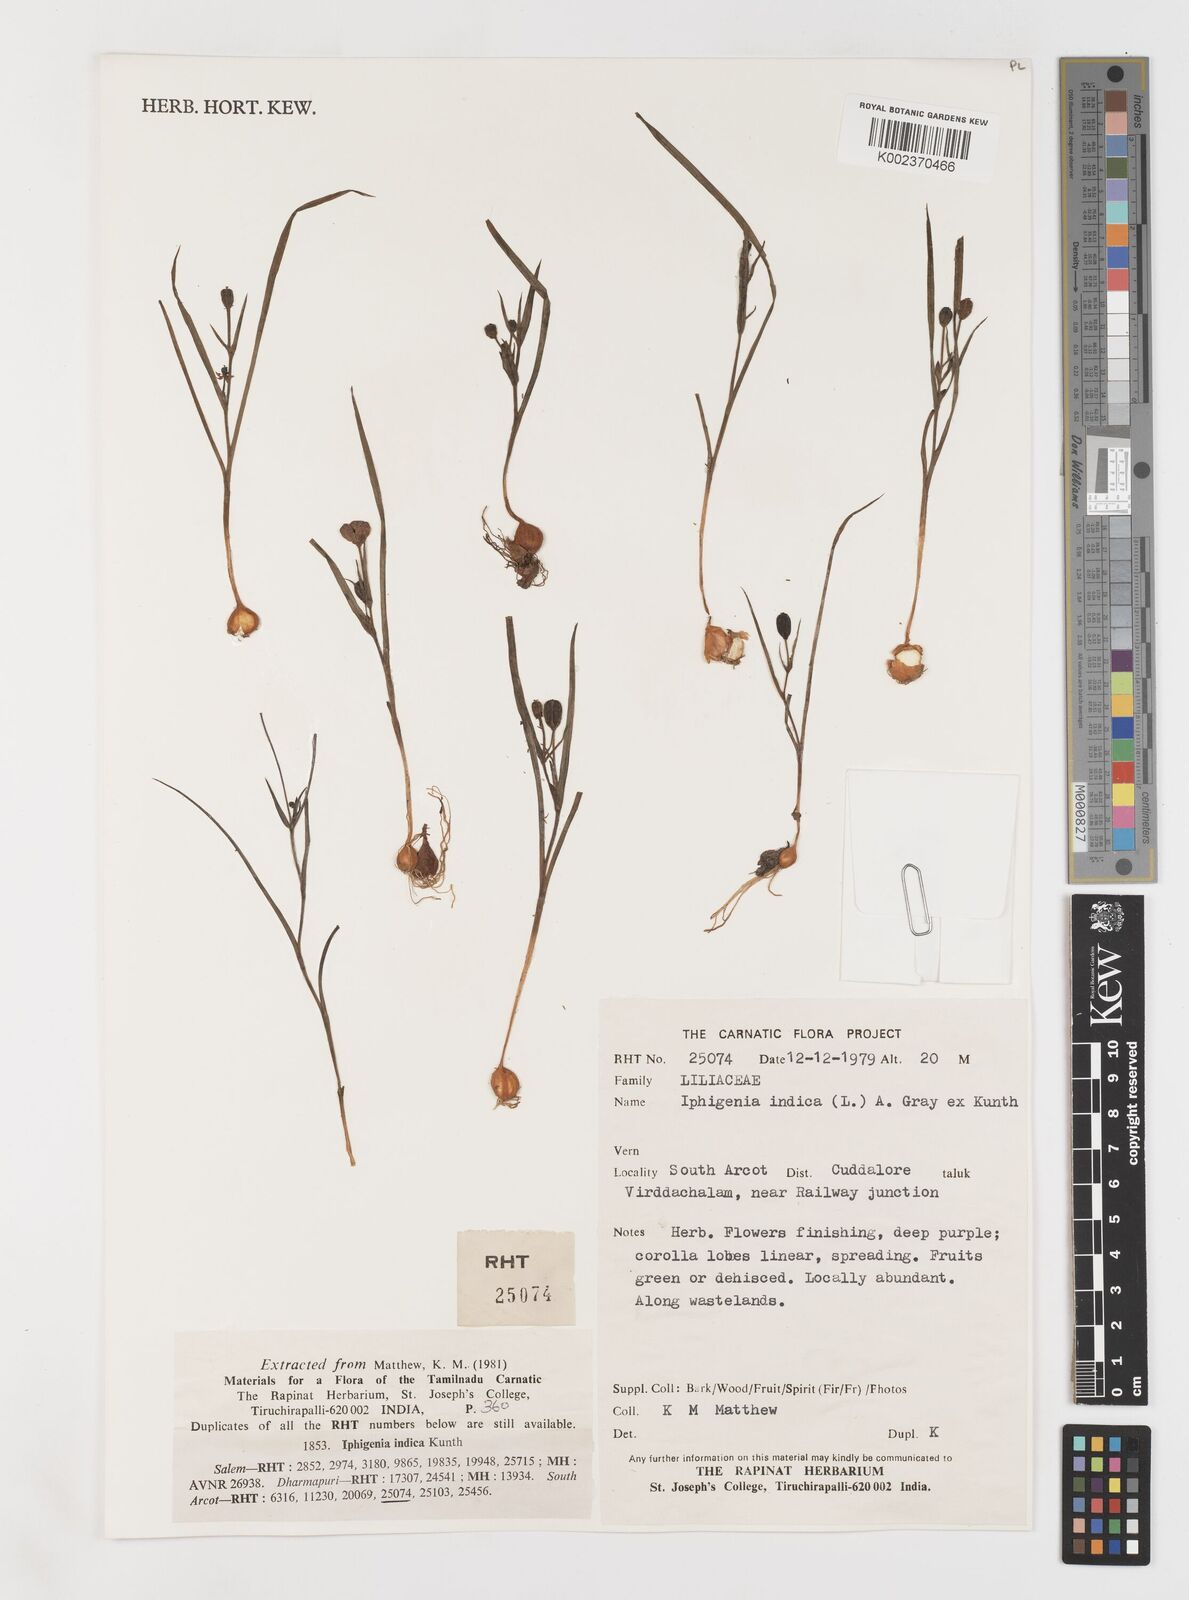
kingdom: Plantae
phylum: Tracheophyta
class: Liliopsida
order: Liliales
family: Colchicaceae
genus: Iphigenia
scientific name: Iphigenia indica
